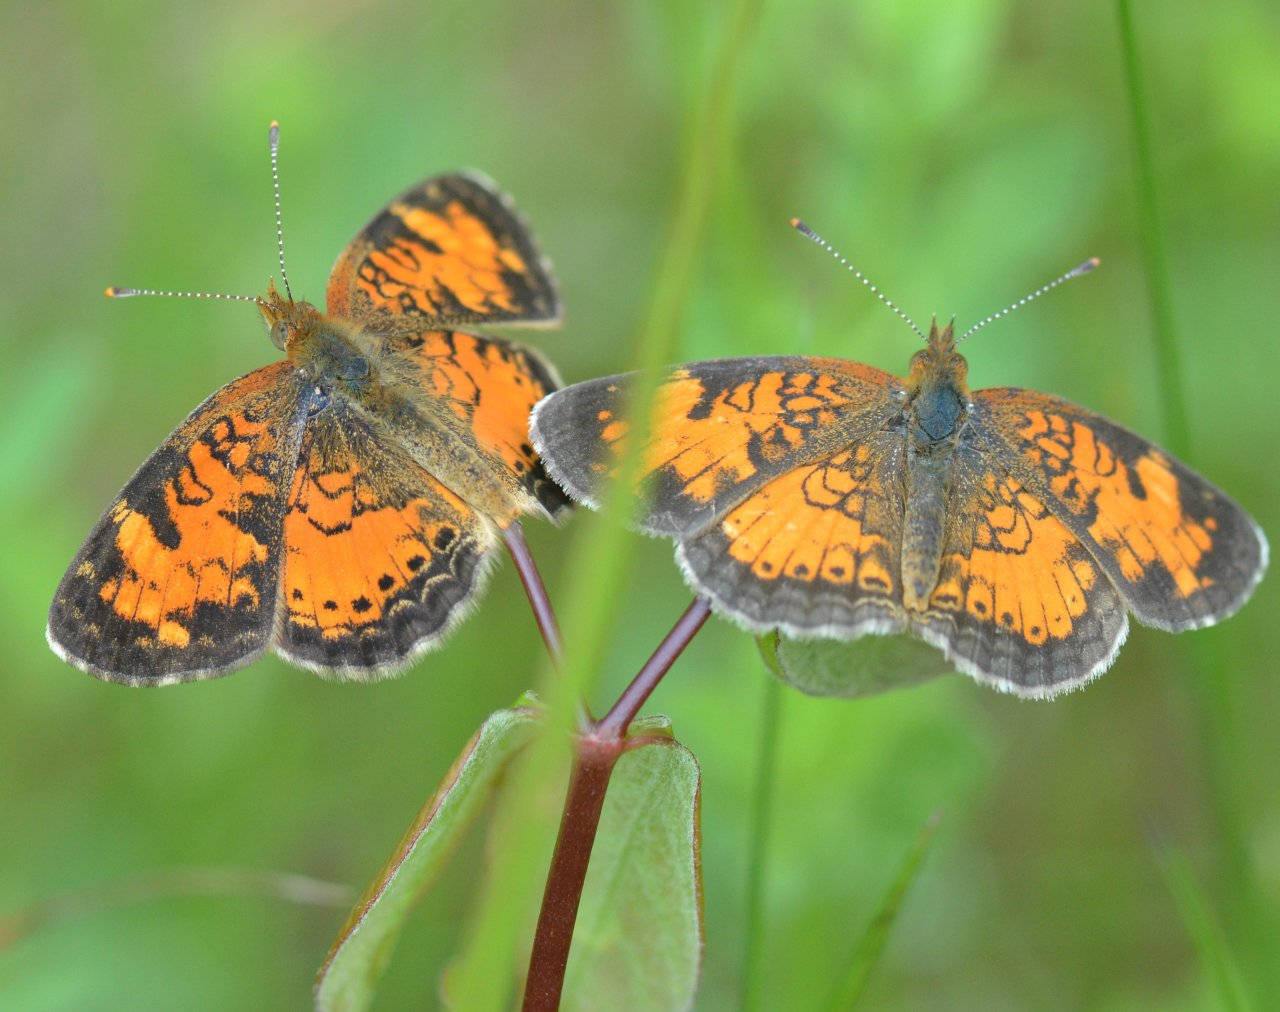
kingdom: Animalia
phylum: Arthropoda
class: Insecta
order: Lepidoptera
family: Nymphalidae
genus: Phyciodes
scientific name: Phyciodes tharos
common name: Northern Crescent
